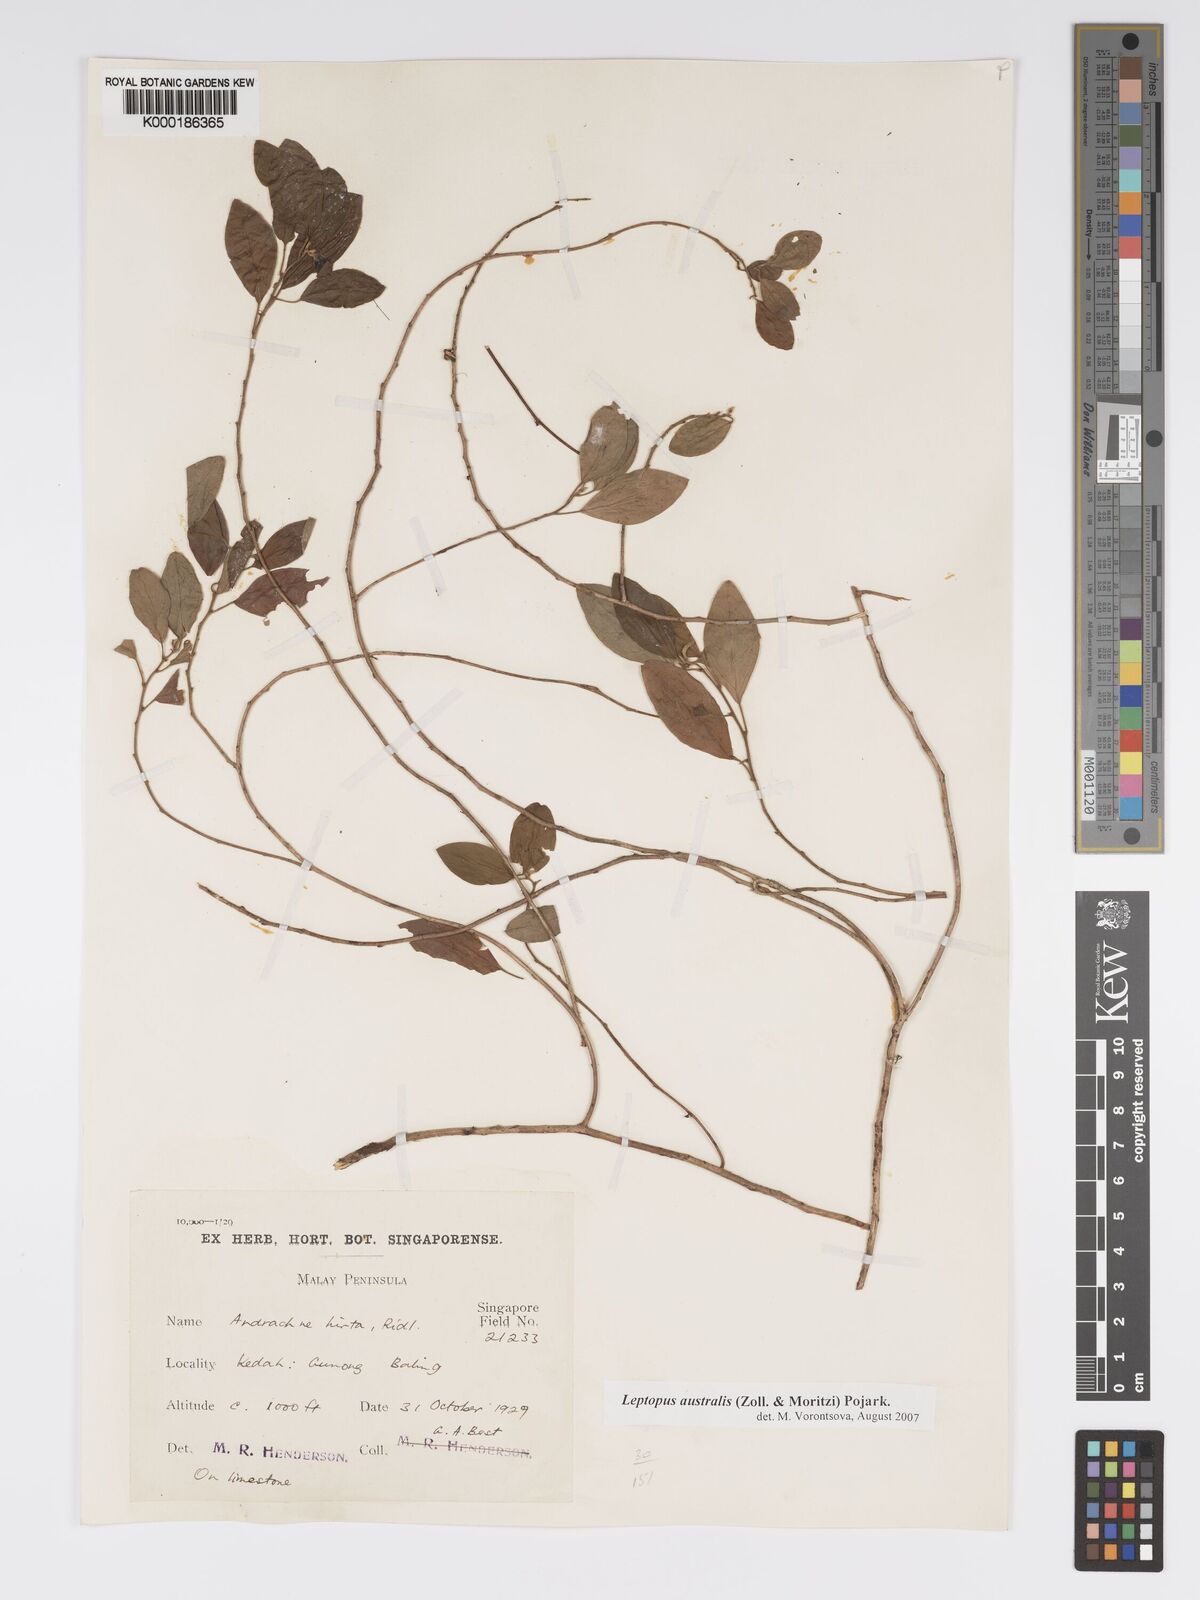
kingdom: Plantae
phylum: Tracheophyta
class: Magnoliopsida
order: Malpighiales
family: Phyllanthaceae
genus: Leptopus
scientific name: Leptopus australis
